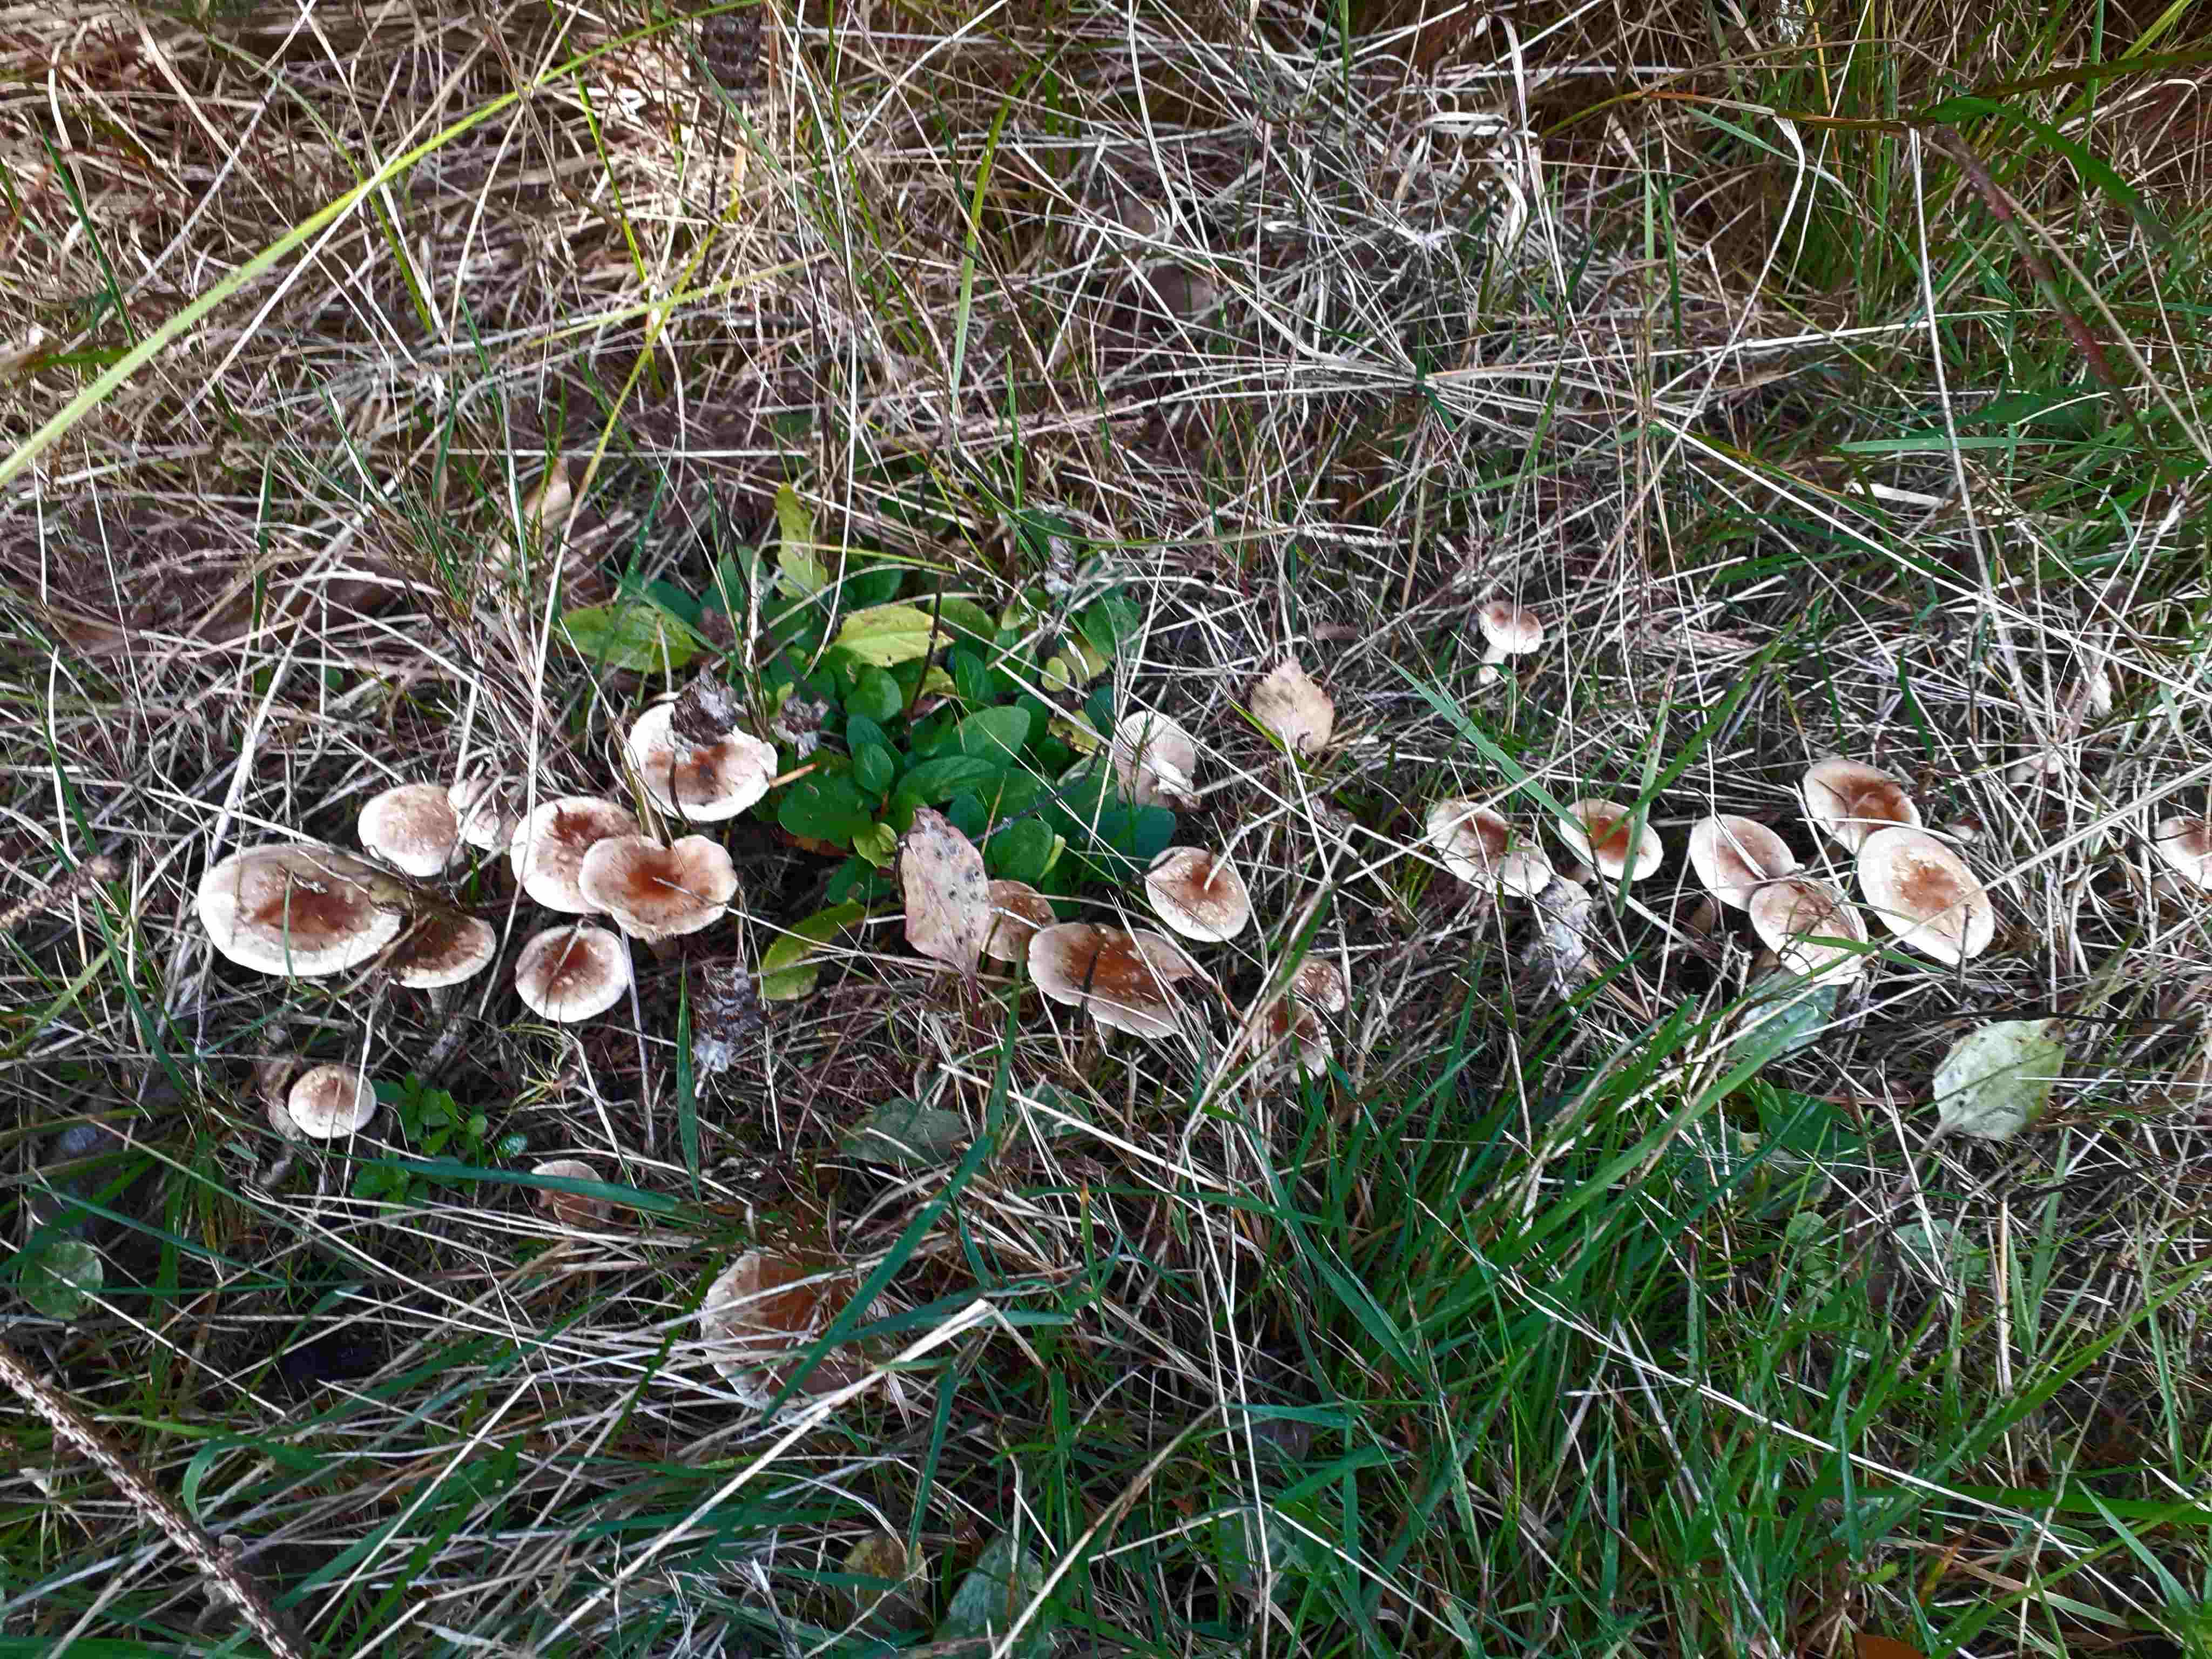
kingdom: Fungi
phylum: Basidiomycota
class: Agaricomycetes
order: Agaricales
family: Hymenogastraceae
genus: Hebeloma
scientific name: Hebeloma mesophaeum
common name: lerbrun tåreblad
